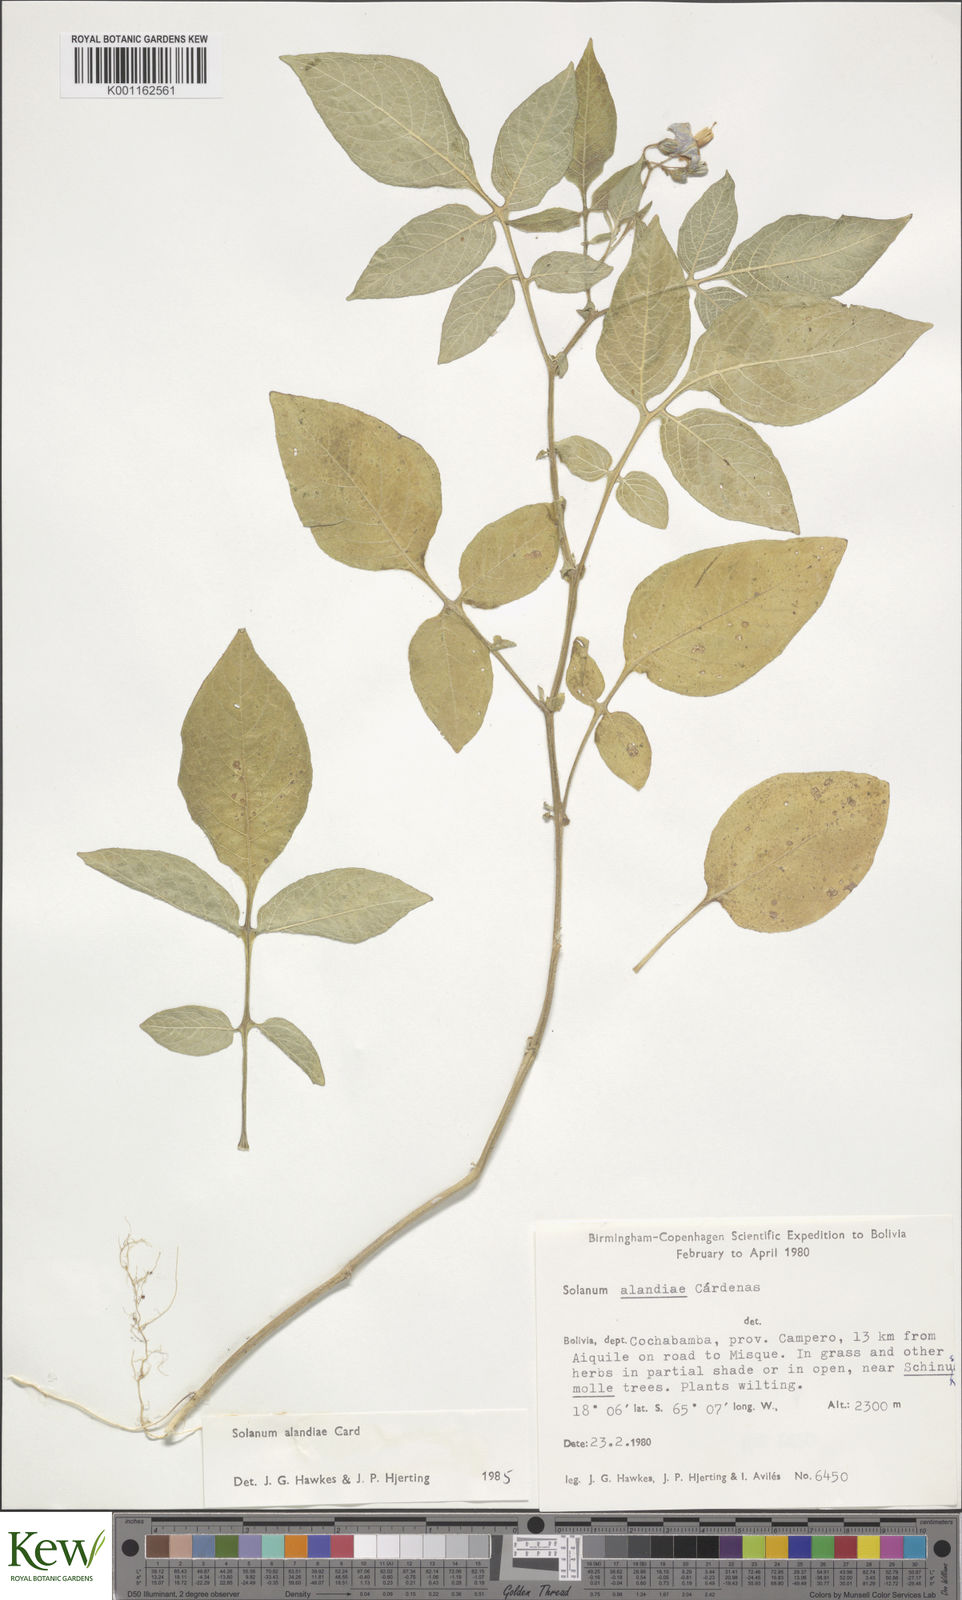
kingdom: Plantae
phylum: Tracheophyta
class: Magnoliopsida
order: Solanales
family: Solanaceae
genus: Solanum
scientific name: Solanum
